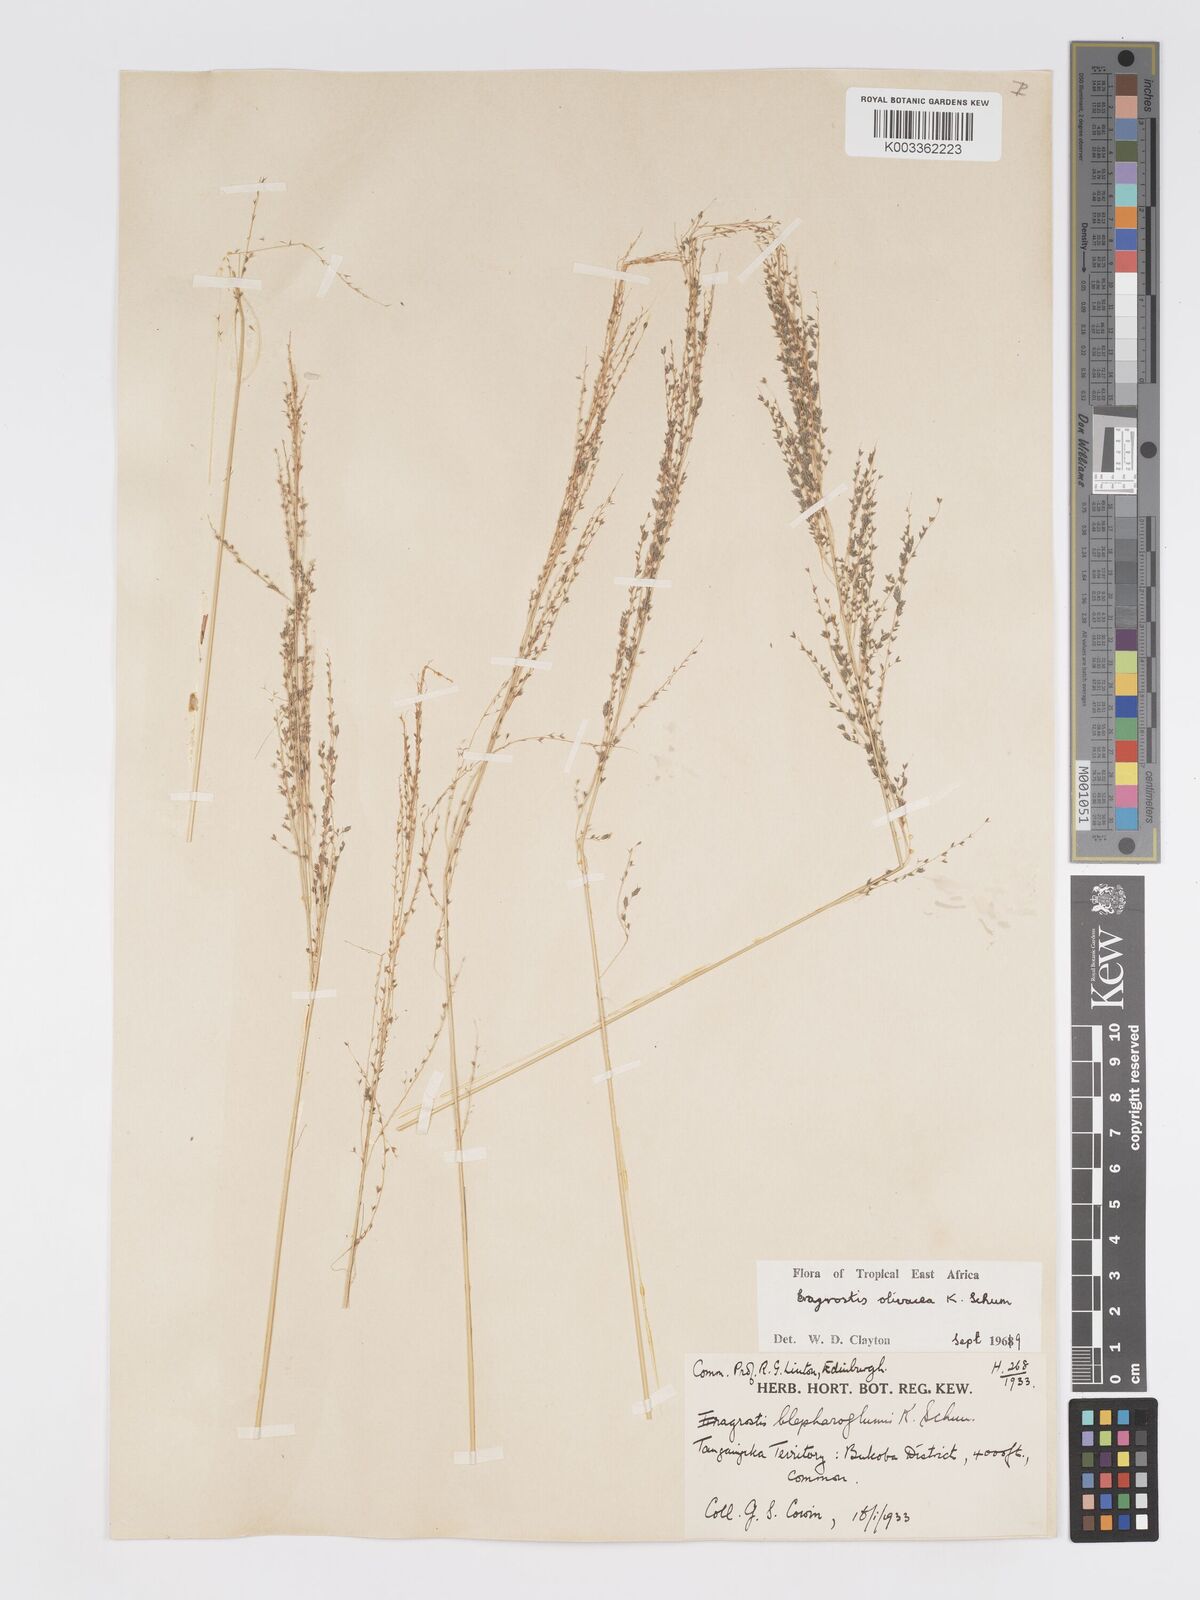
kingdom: Plantae
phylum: Tracheophyta
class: Liliopsida
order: Poales
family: Poaceae
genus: Eragrostis
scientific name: Eragrostis olivacea
